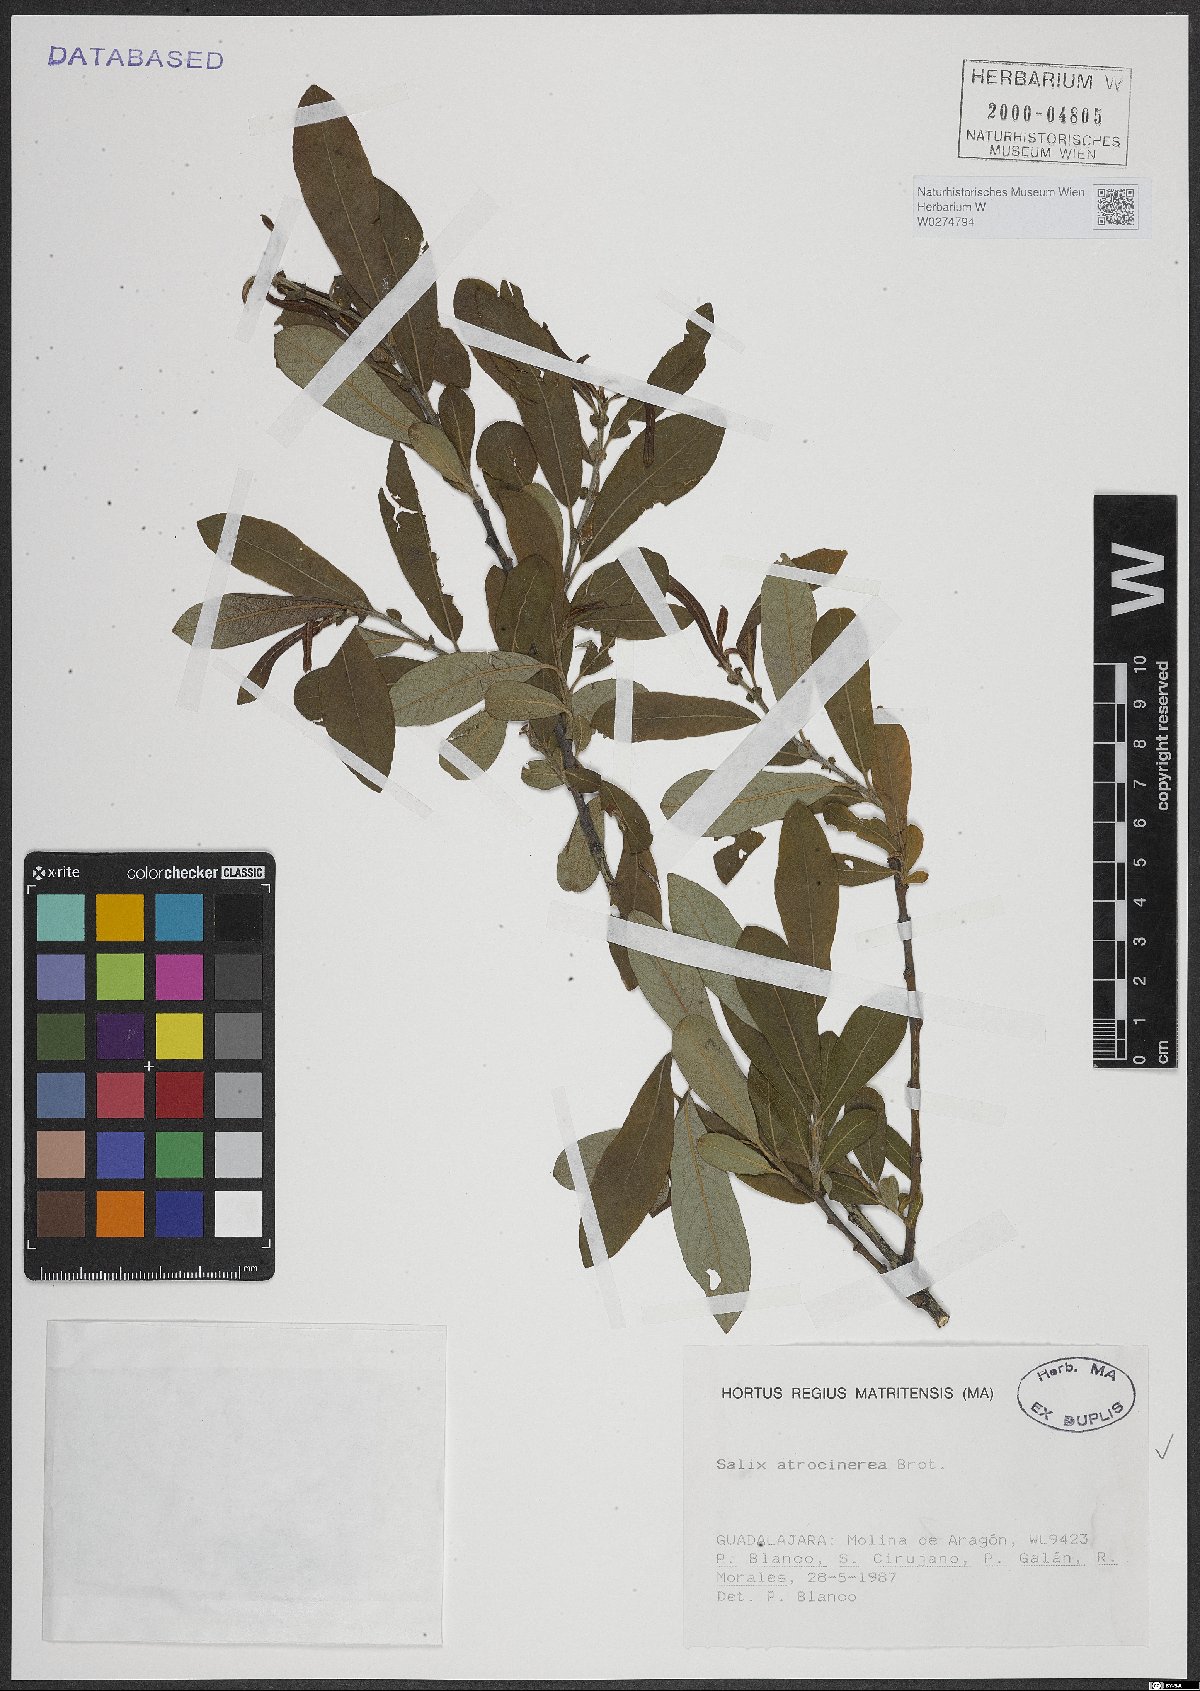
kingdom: Plantae
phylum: Tracheophyta
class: Magnoliopsida
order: Malpighiales
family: Salicaceae
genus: Salix
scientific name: Salix atrocinerea
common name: Rusty willow
